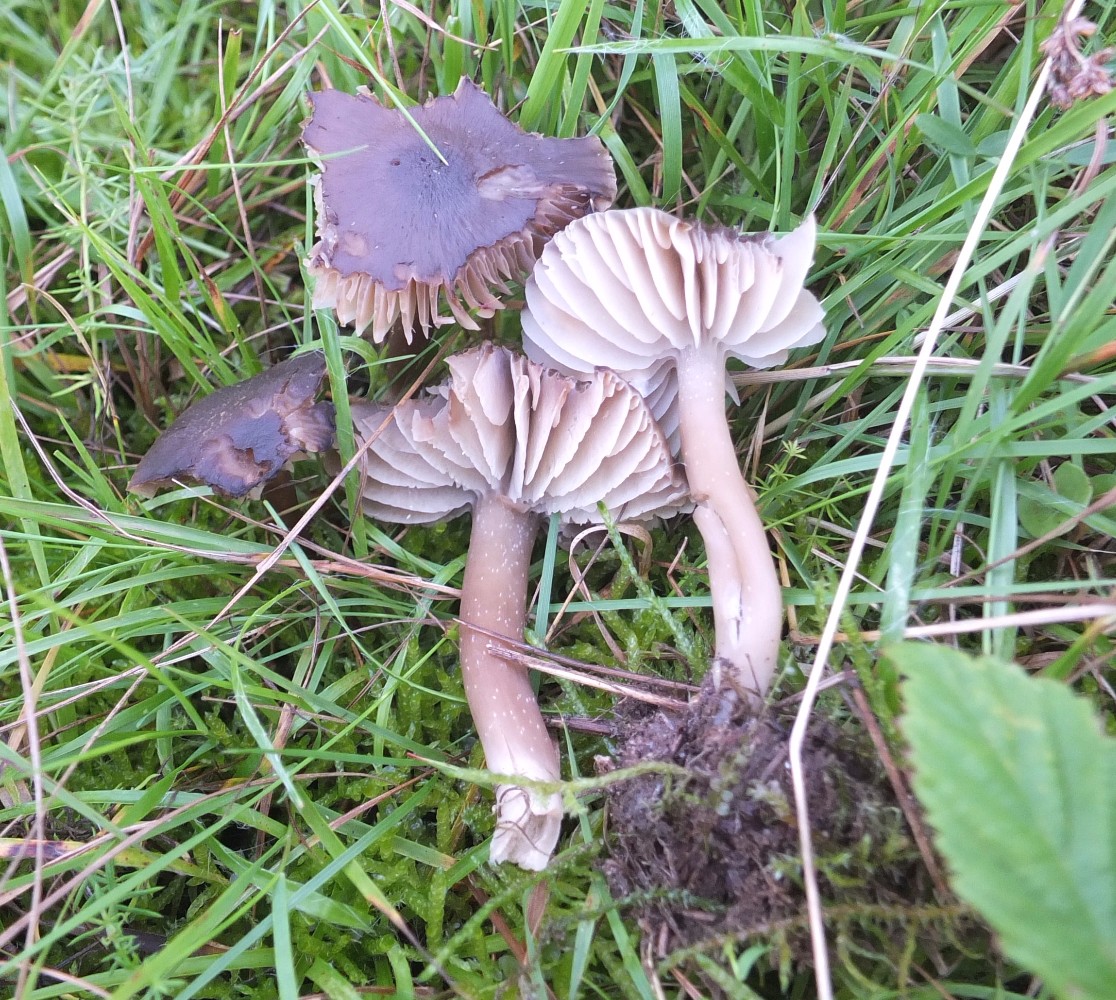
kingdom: Fungi
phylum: Basidiomycota
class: Agaricomycetes
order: Agaricales
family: Hygrophoraceae
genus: Neohygrocybe
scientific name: Neohygrocybe nitrata
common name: stinkende vokshat
